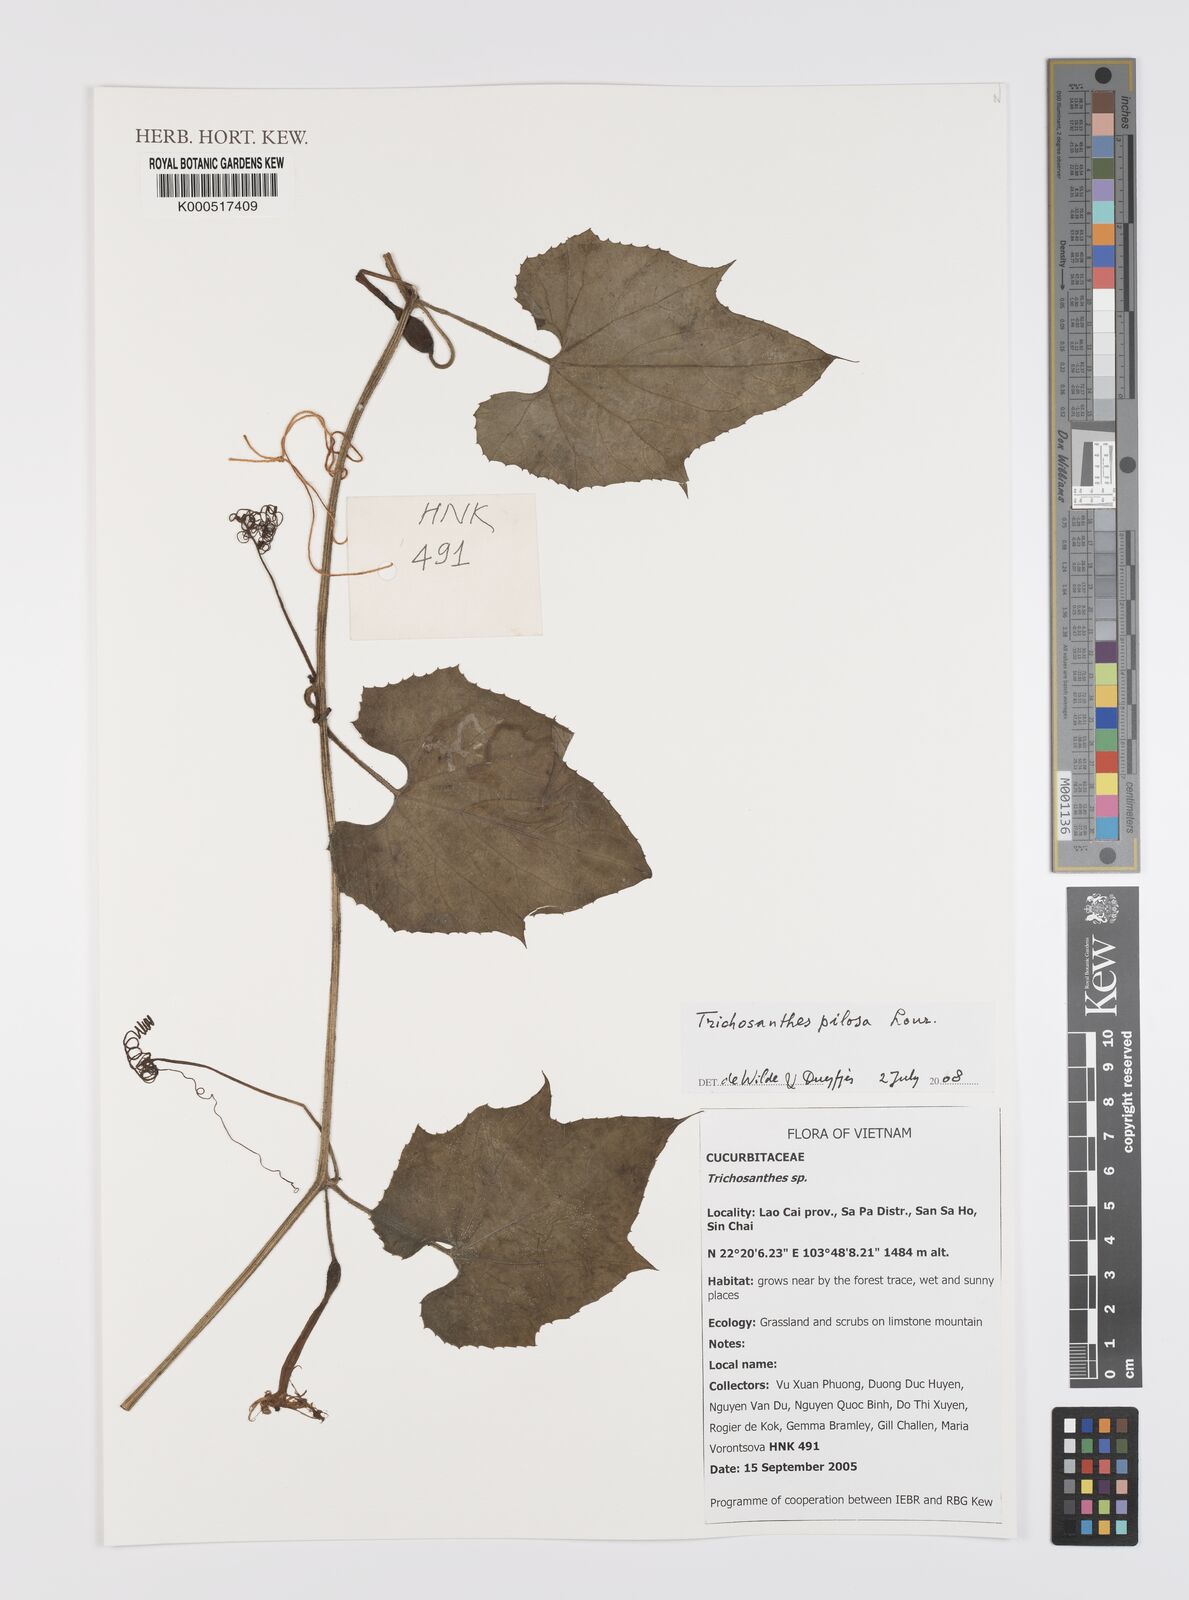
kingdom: Plantae
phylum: Tracheophyta
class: Magnoliopsida
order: Cucurbitales
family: Cucurbitaceae
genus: Trichosanthes
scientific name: Trichosanthes pilosa
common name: Snake gourd
